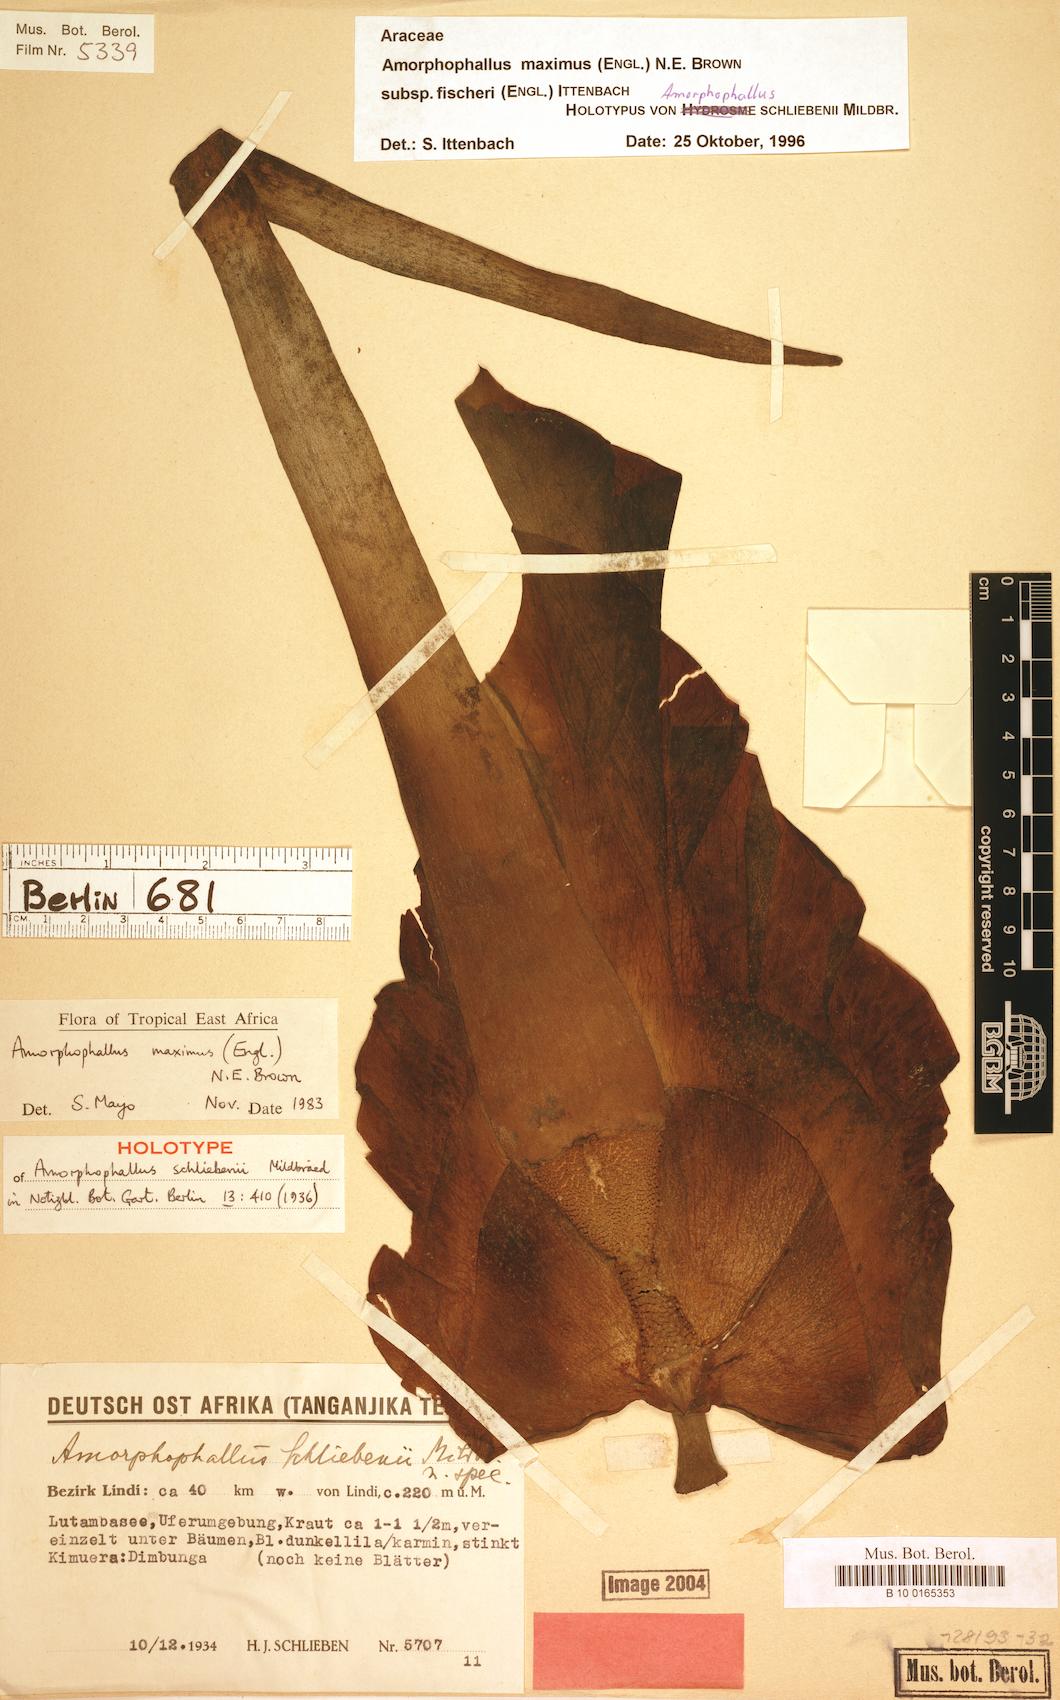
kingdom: Plantae
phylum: Tracheophyta
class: Liliopsida
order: Alismatales
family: Araceae
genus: Amorphophallus
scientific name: Amorphophallus maximus
